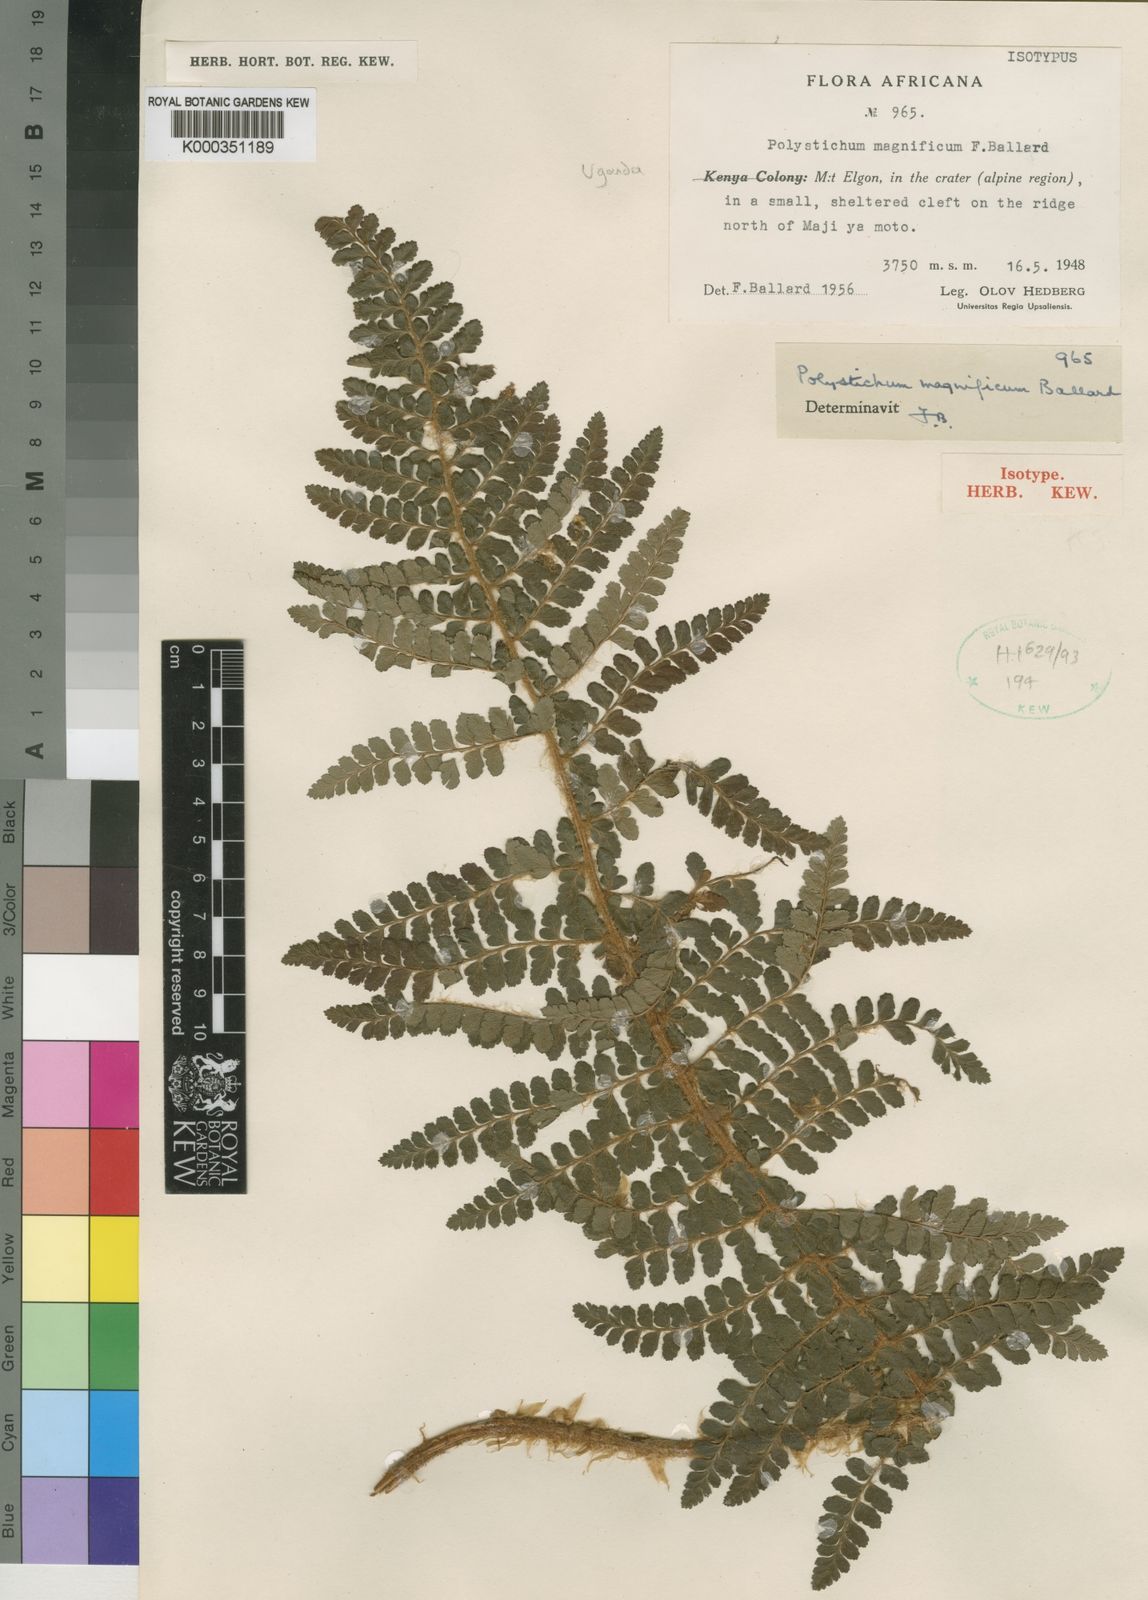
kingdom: Plantae
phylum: Tracheophyta
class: Polypodiopsida
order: Polypodiales
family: Dryopteridaceae
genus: Polystichum
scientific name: Polystichum magnificum
